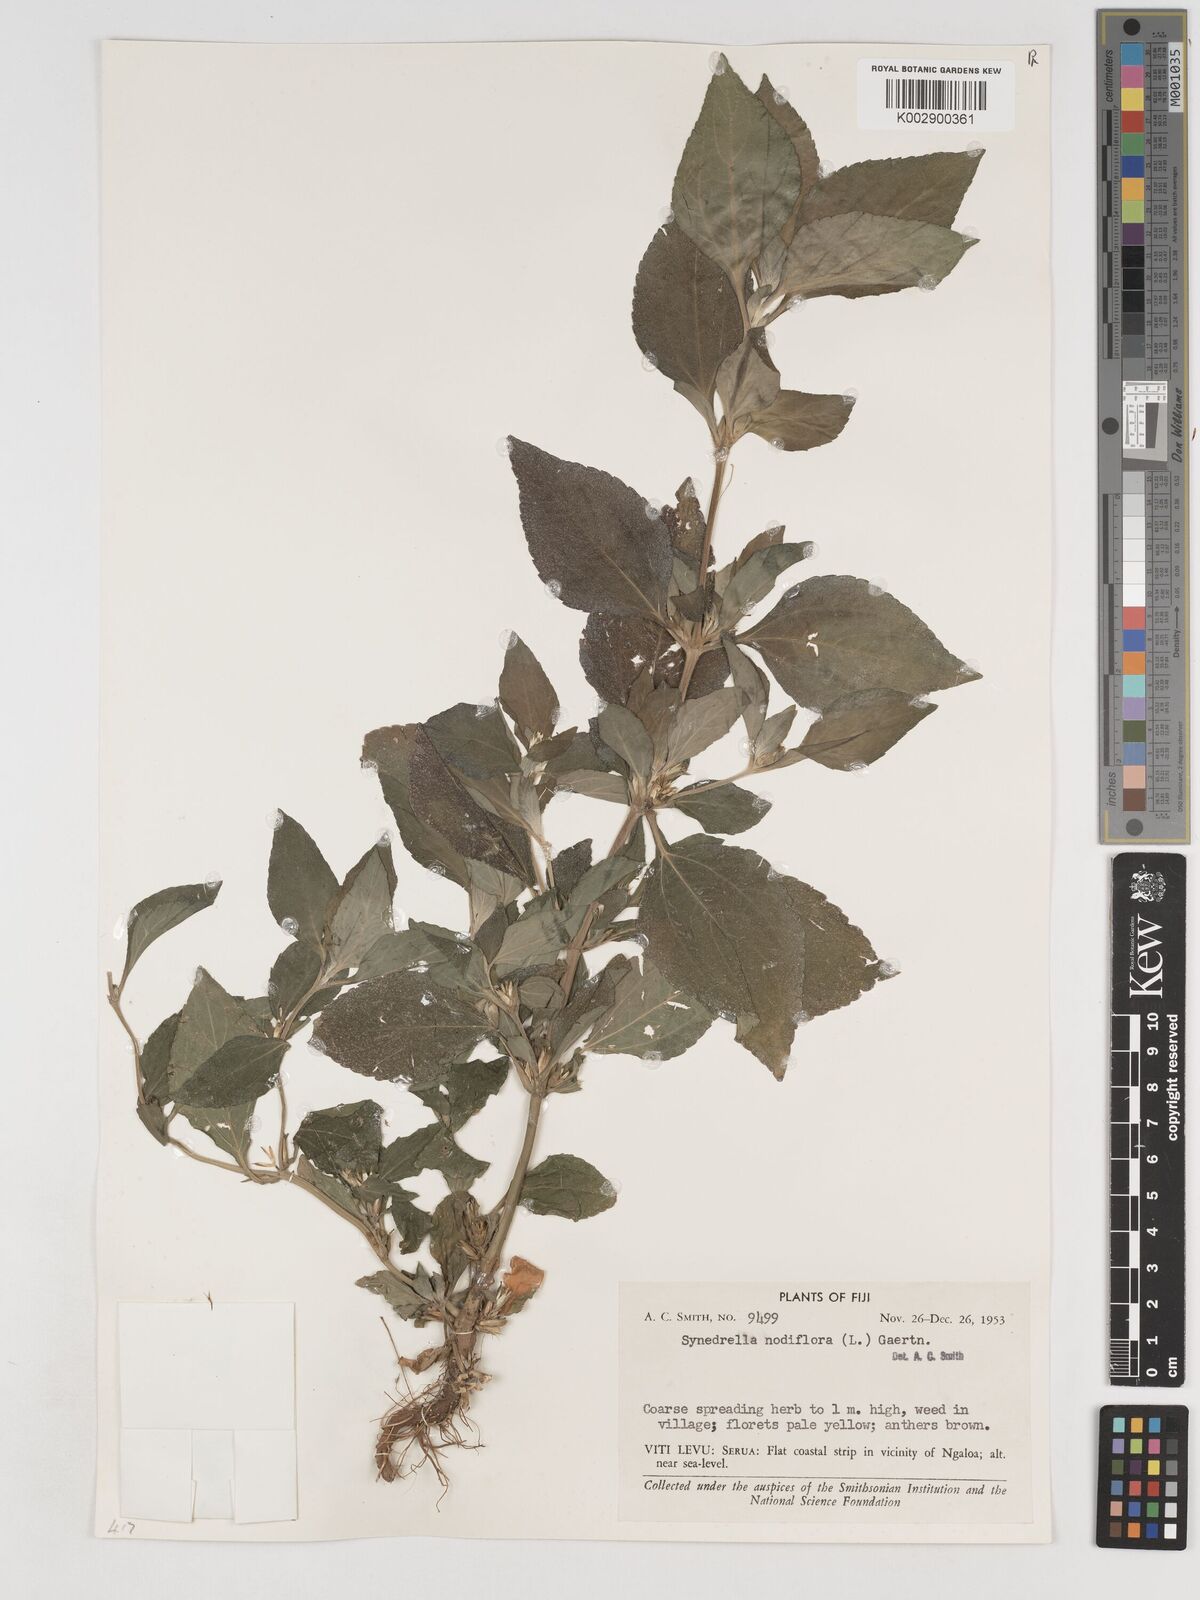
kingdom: Plantae
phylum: Tracheophyta
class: Magnoliopsida
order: Asterales
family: Asteraceae
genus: Synedrella
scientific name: Synedrella nodiflora
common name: Nodeweed
